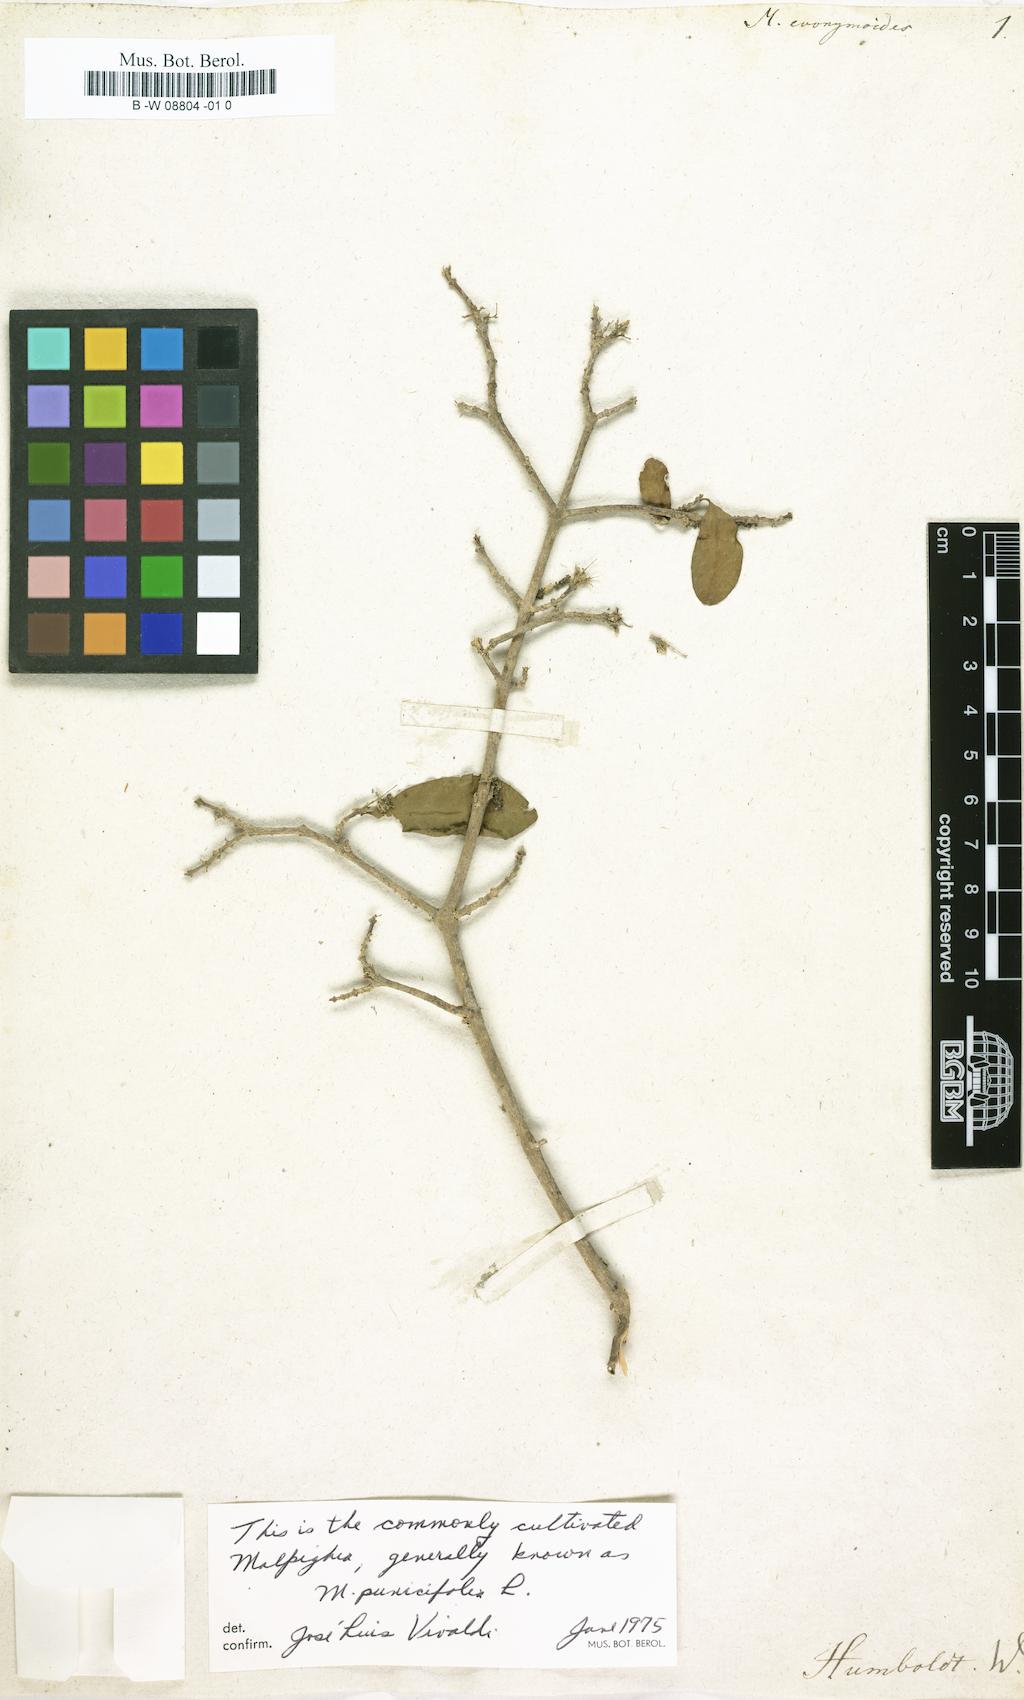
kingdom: Plantae
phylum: Tracheophyta
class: Magnoliopsida
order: Malpighiales
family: Malpighiaceae
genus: Malpighia
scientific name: Malpighia
